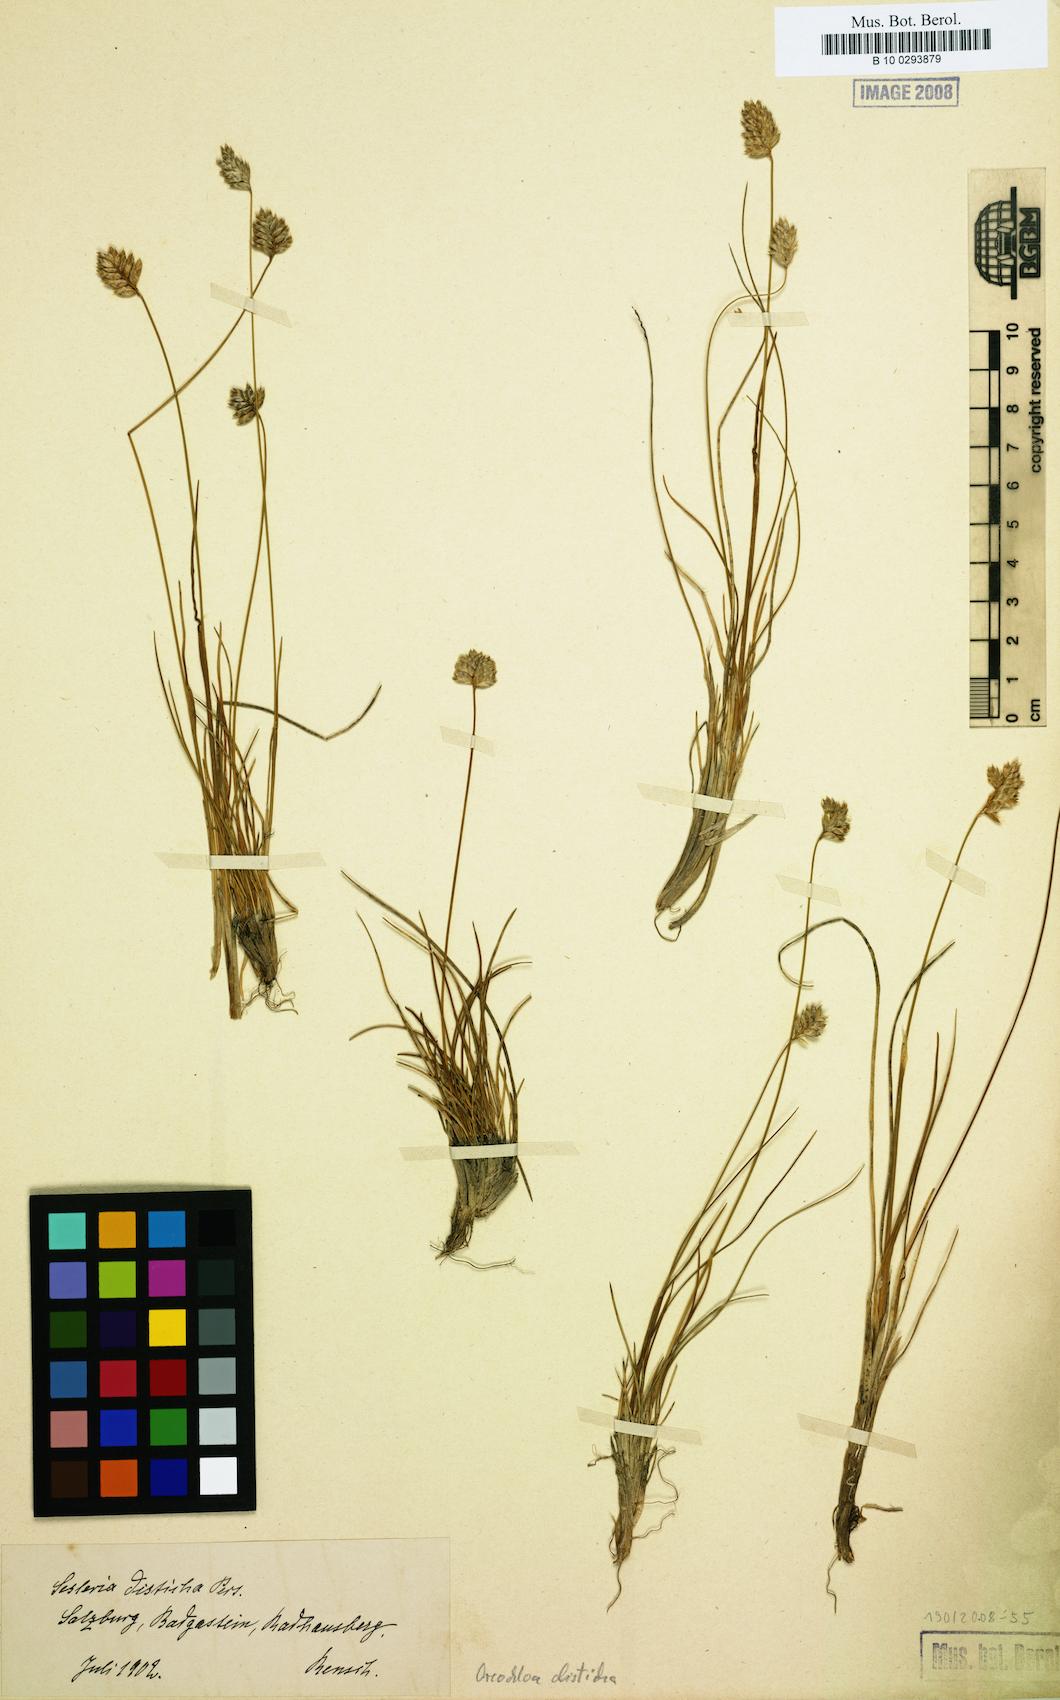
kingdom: Plantae
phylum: Tracheophyta
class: Liliopsida
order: Poales
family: Poaceae
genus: Oreochloa
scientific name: Oreochloa disticha
